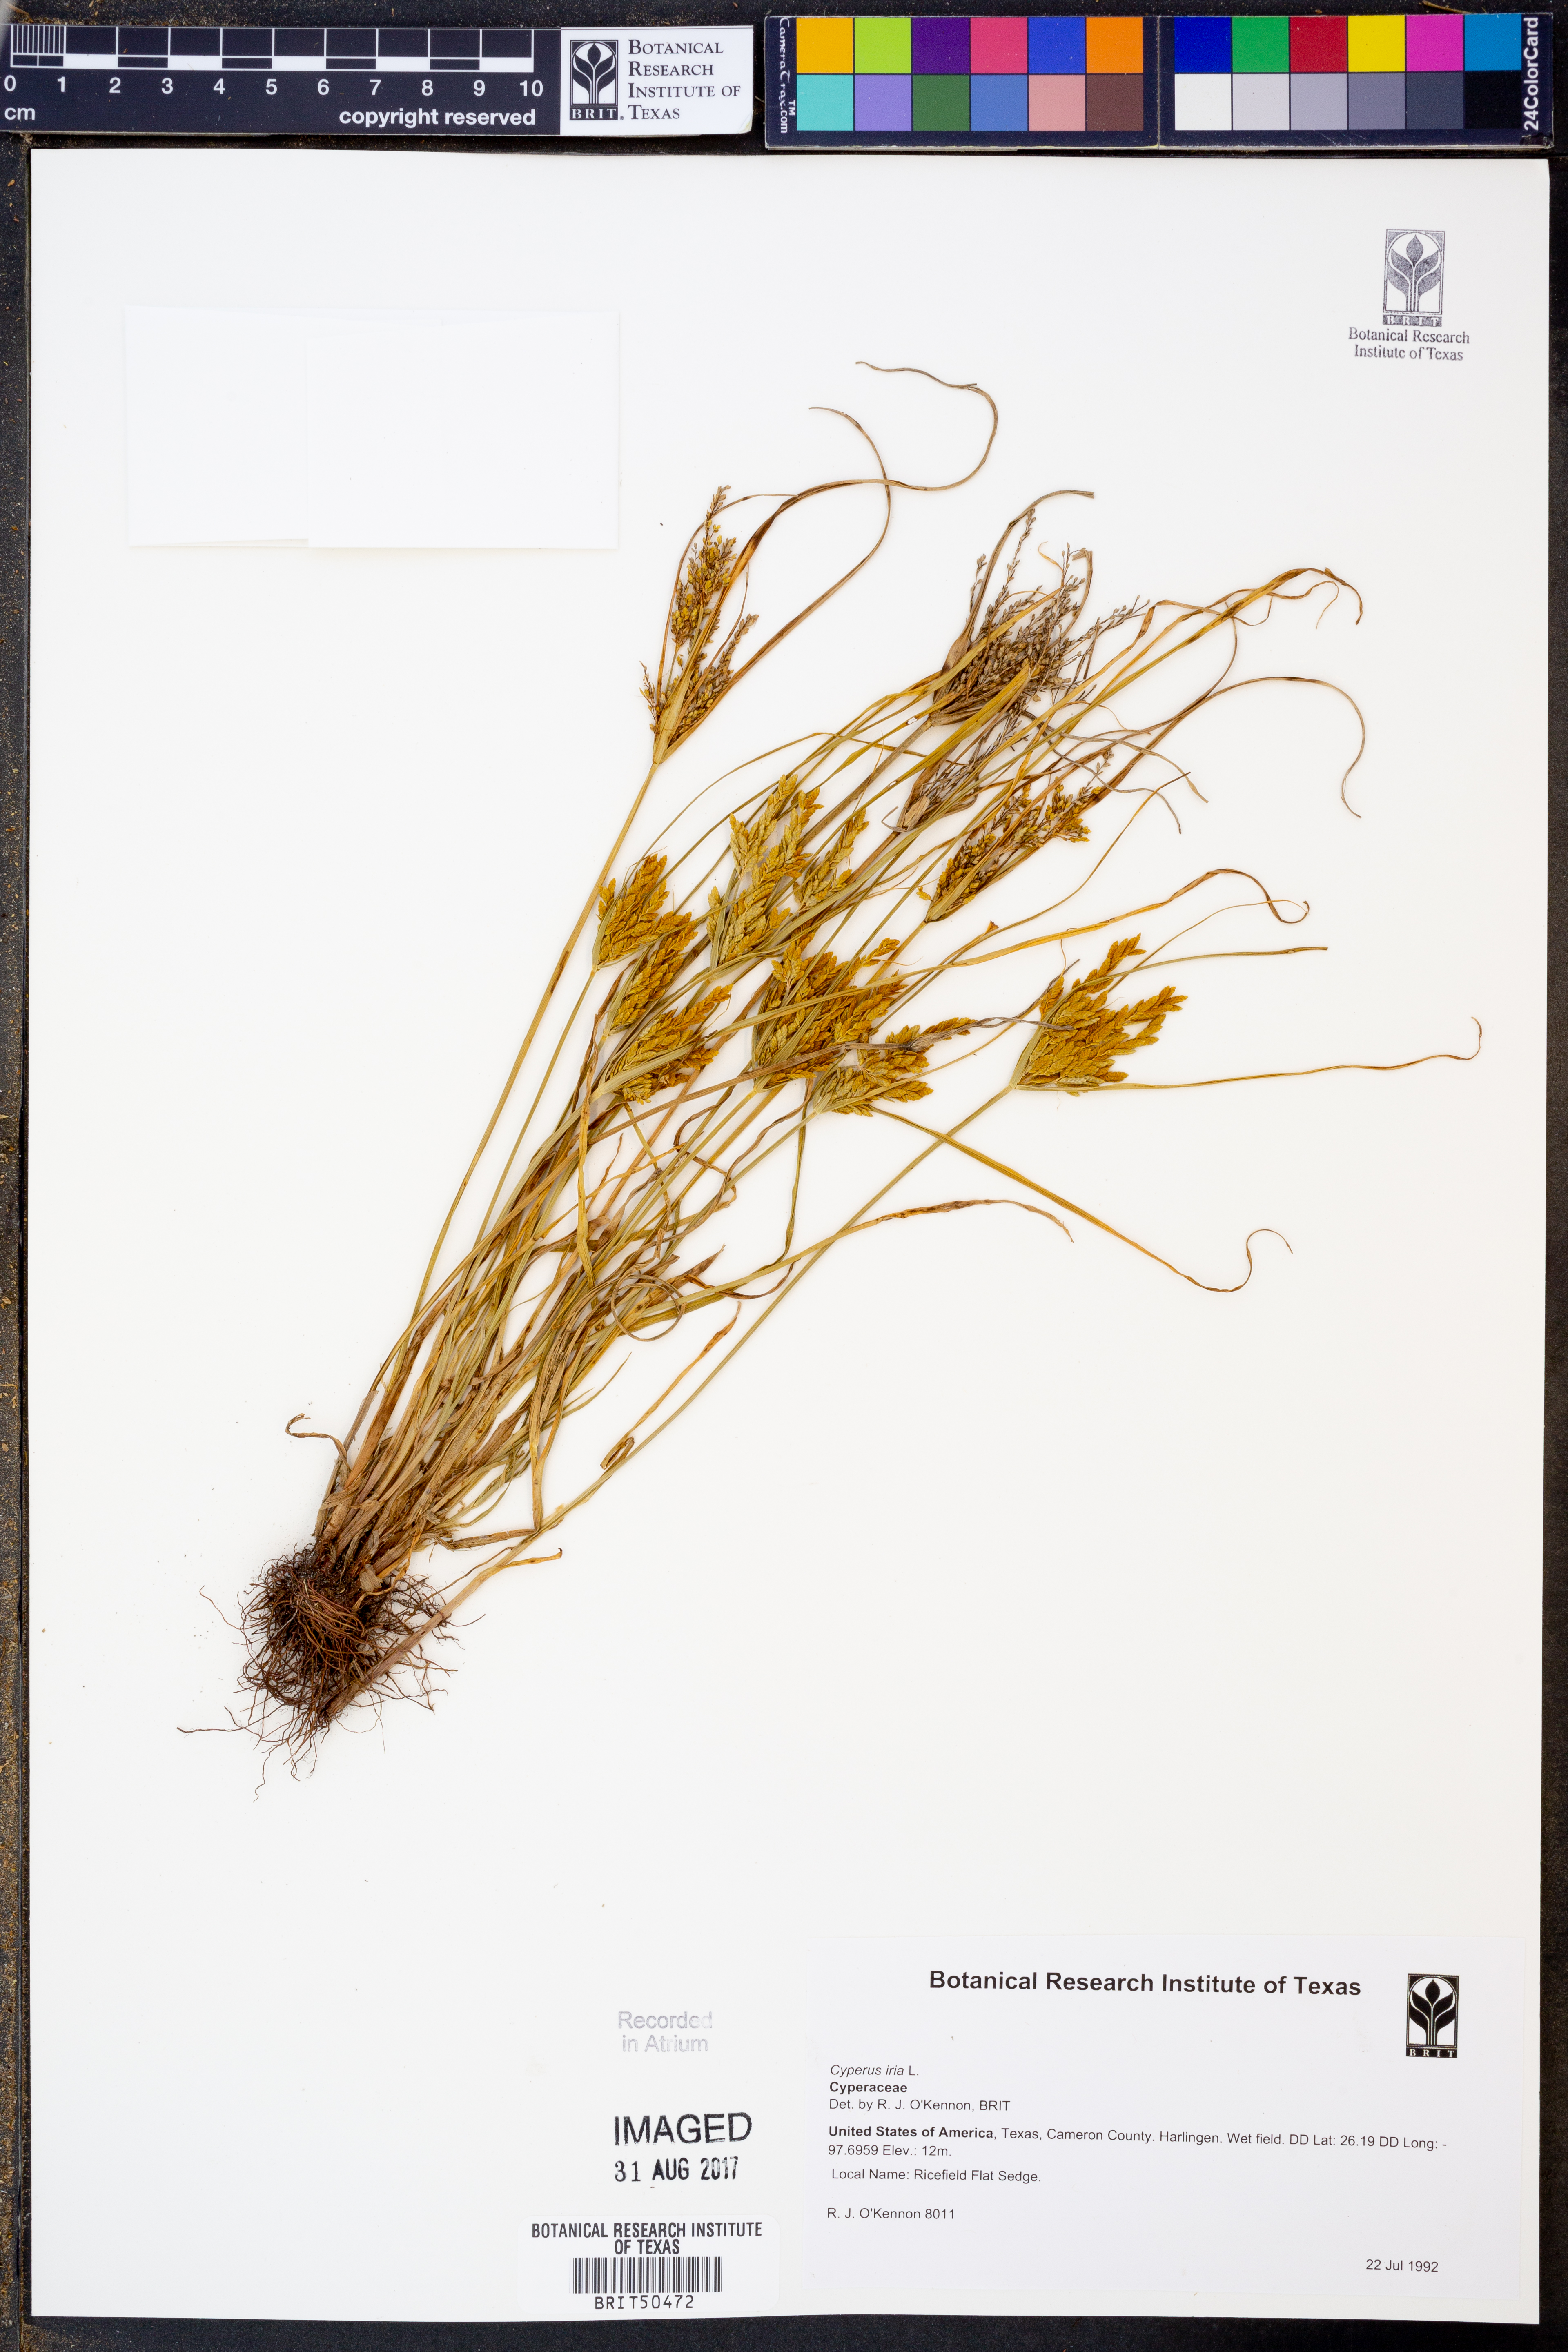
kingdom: Plantae
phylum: Tracheophyta
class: Liliopsida
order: Poales
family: Cyperaceae
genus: Cyperus
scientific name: Cyperus iria
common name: Ricefield flatsedge
